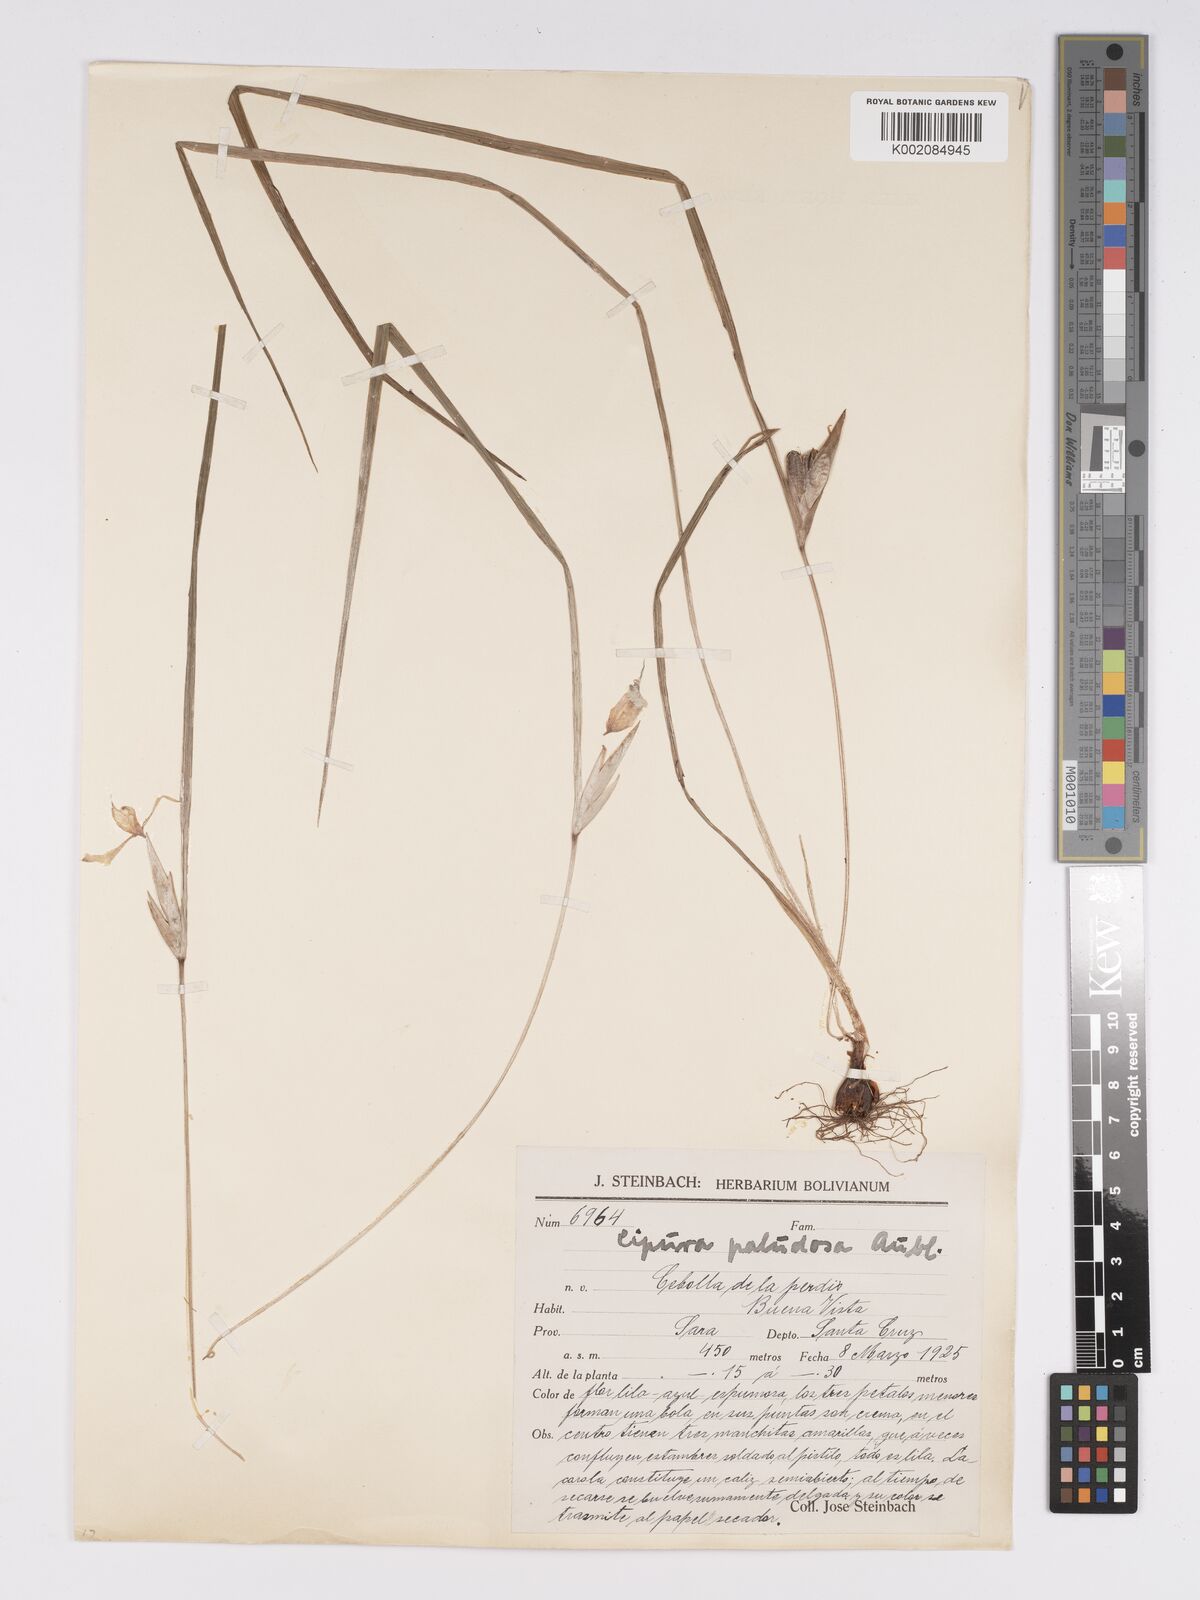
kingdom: Plantae
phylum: Tracheophyta
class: Liliopsida
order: Asparagales
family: Iridaceae
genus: Cipura
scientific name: Cipura paludosa
